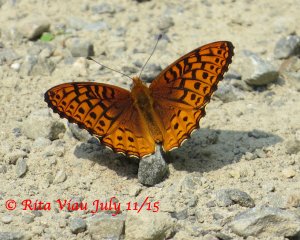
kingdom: Animalia
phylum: Arthropoda
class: Insecta
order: Lepidoptera
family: Nymphalidae
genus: Speyeria
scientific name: Speyeria atlantis
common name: Atlantis Fritillary
